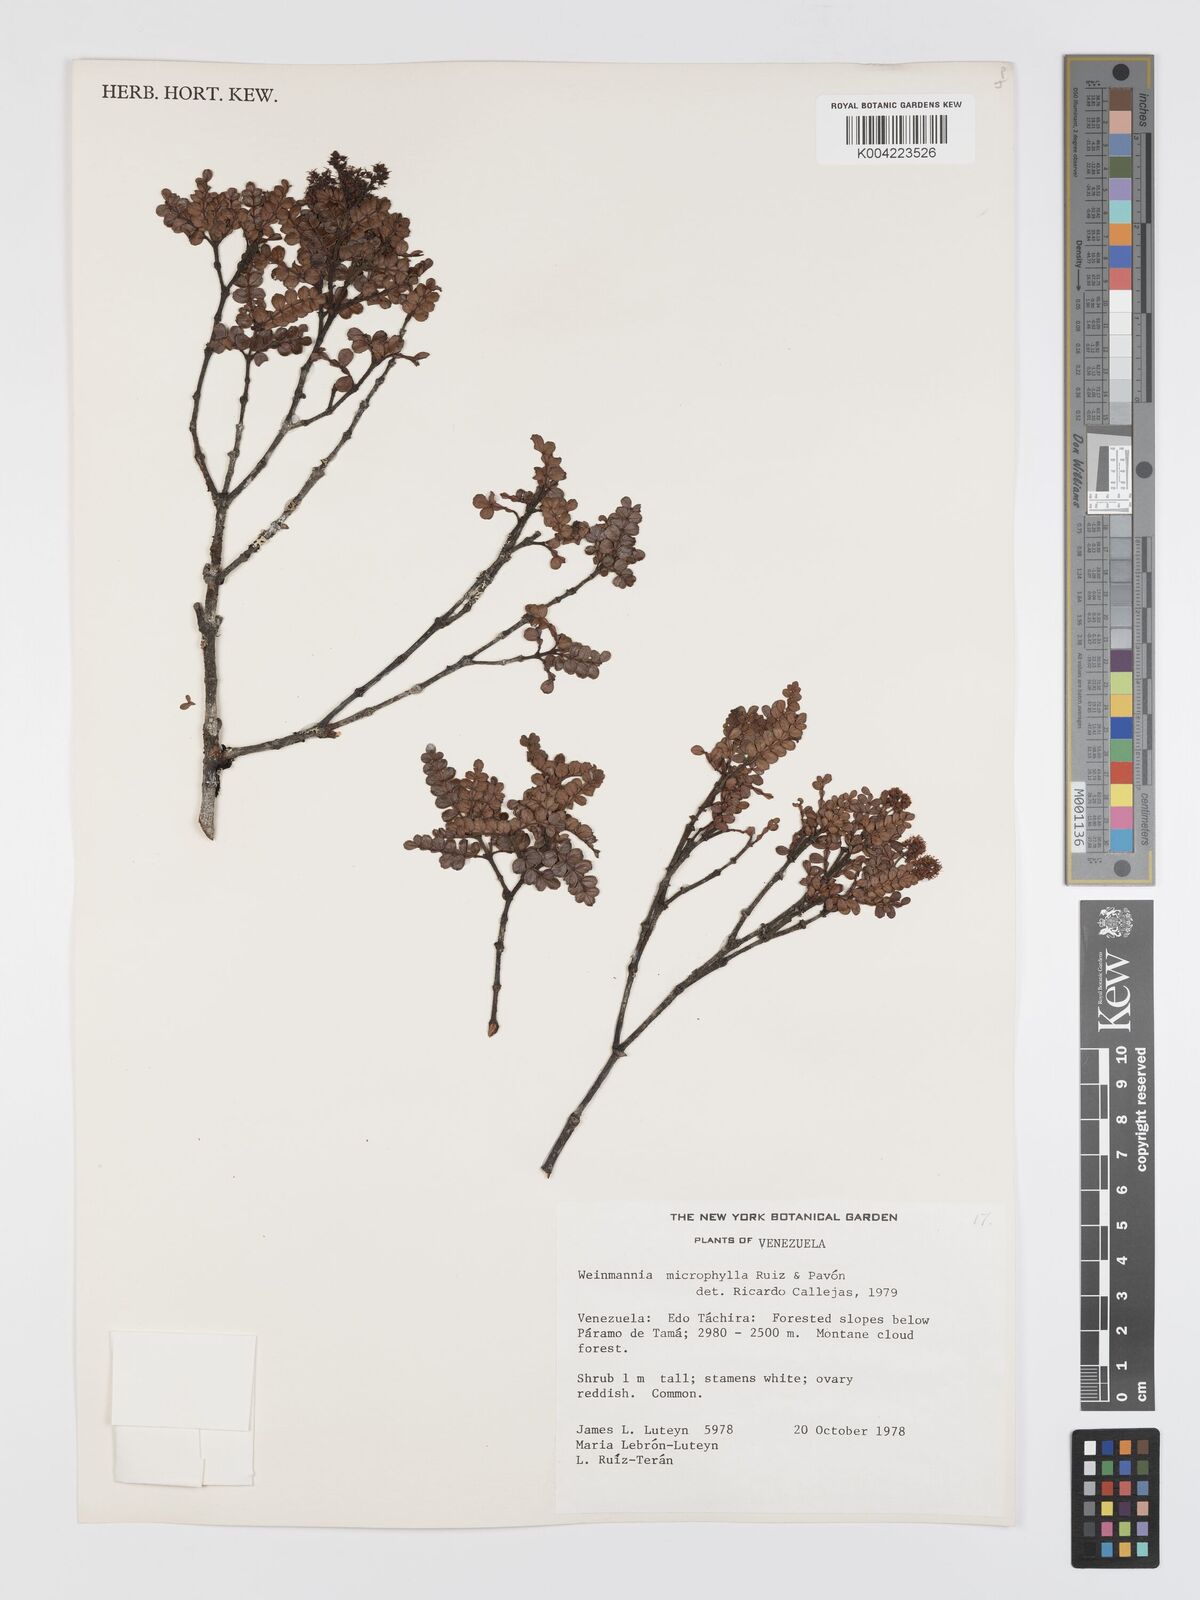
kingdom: Plantae
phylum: Tracheophyta
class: Magnoliopsida
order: Oxalidales
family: Cunoniaceae
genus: Weinmannia
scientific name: Weinmannia microphylla
